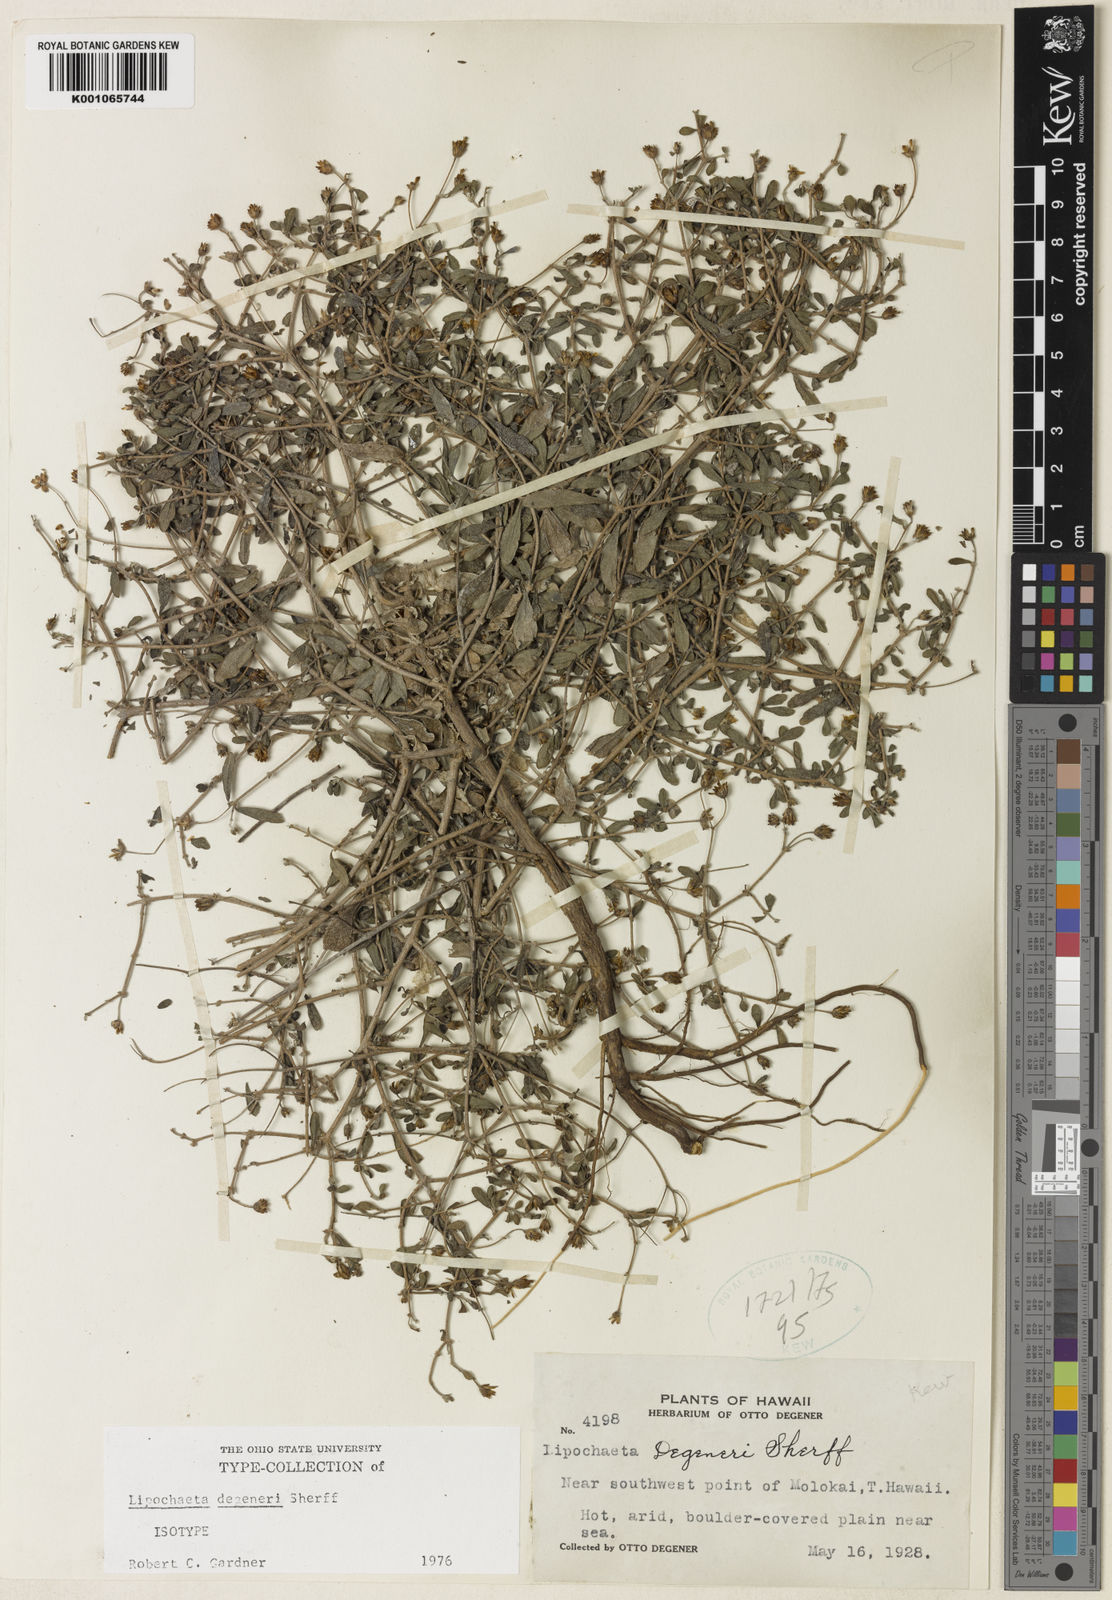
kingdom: Plantae
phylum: Tracheophyta
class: Magnoliopsida
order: Asterales
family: Asteraceae
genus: Lipochaeta
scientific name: Lipochaeta degeneri
